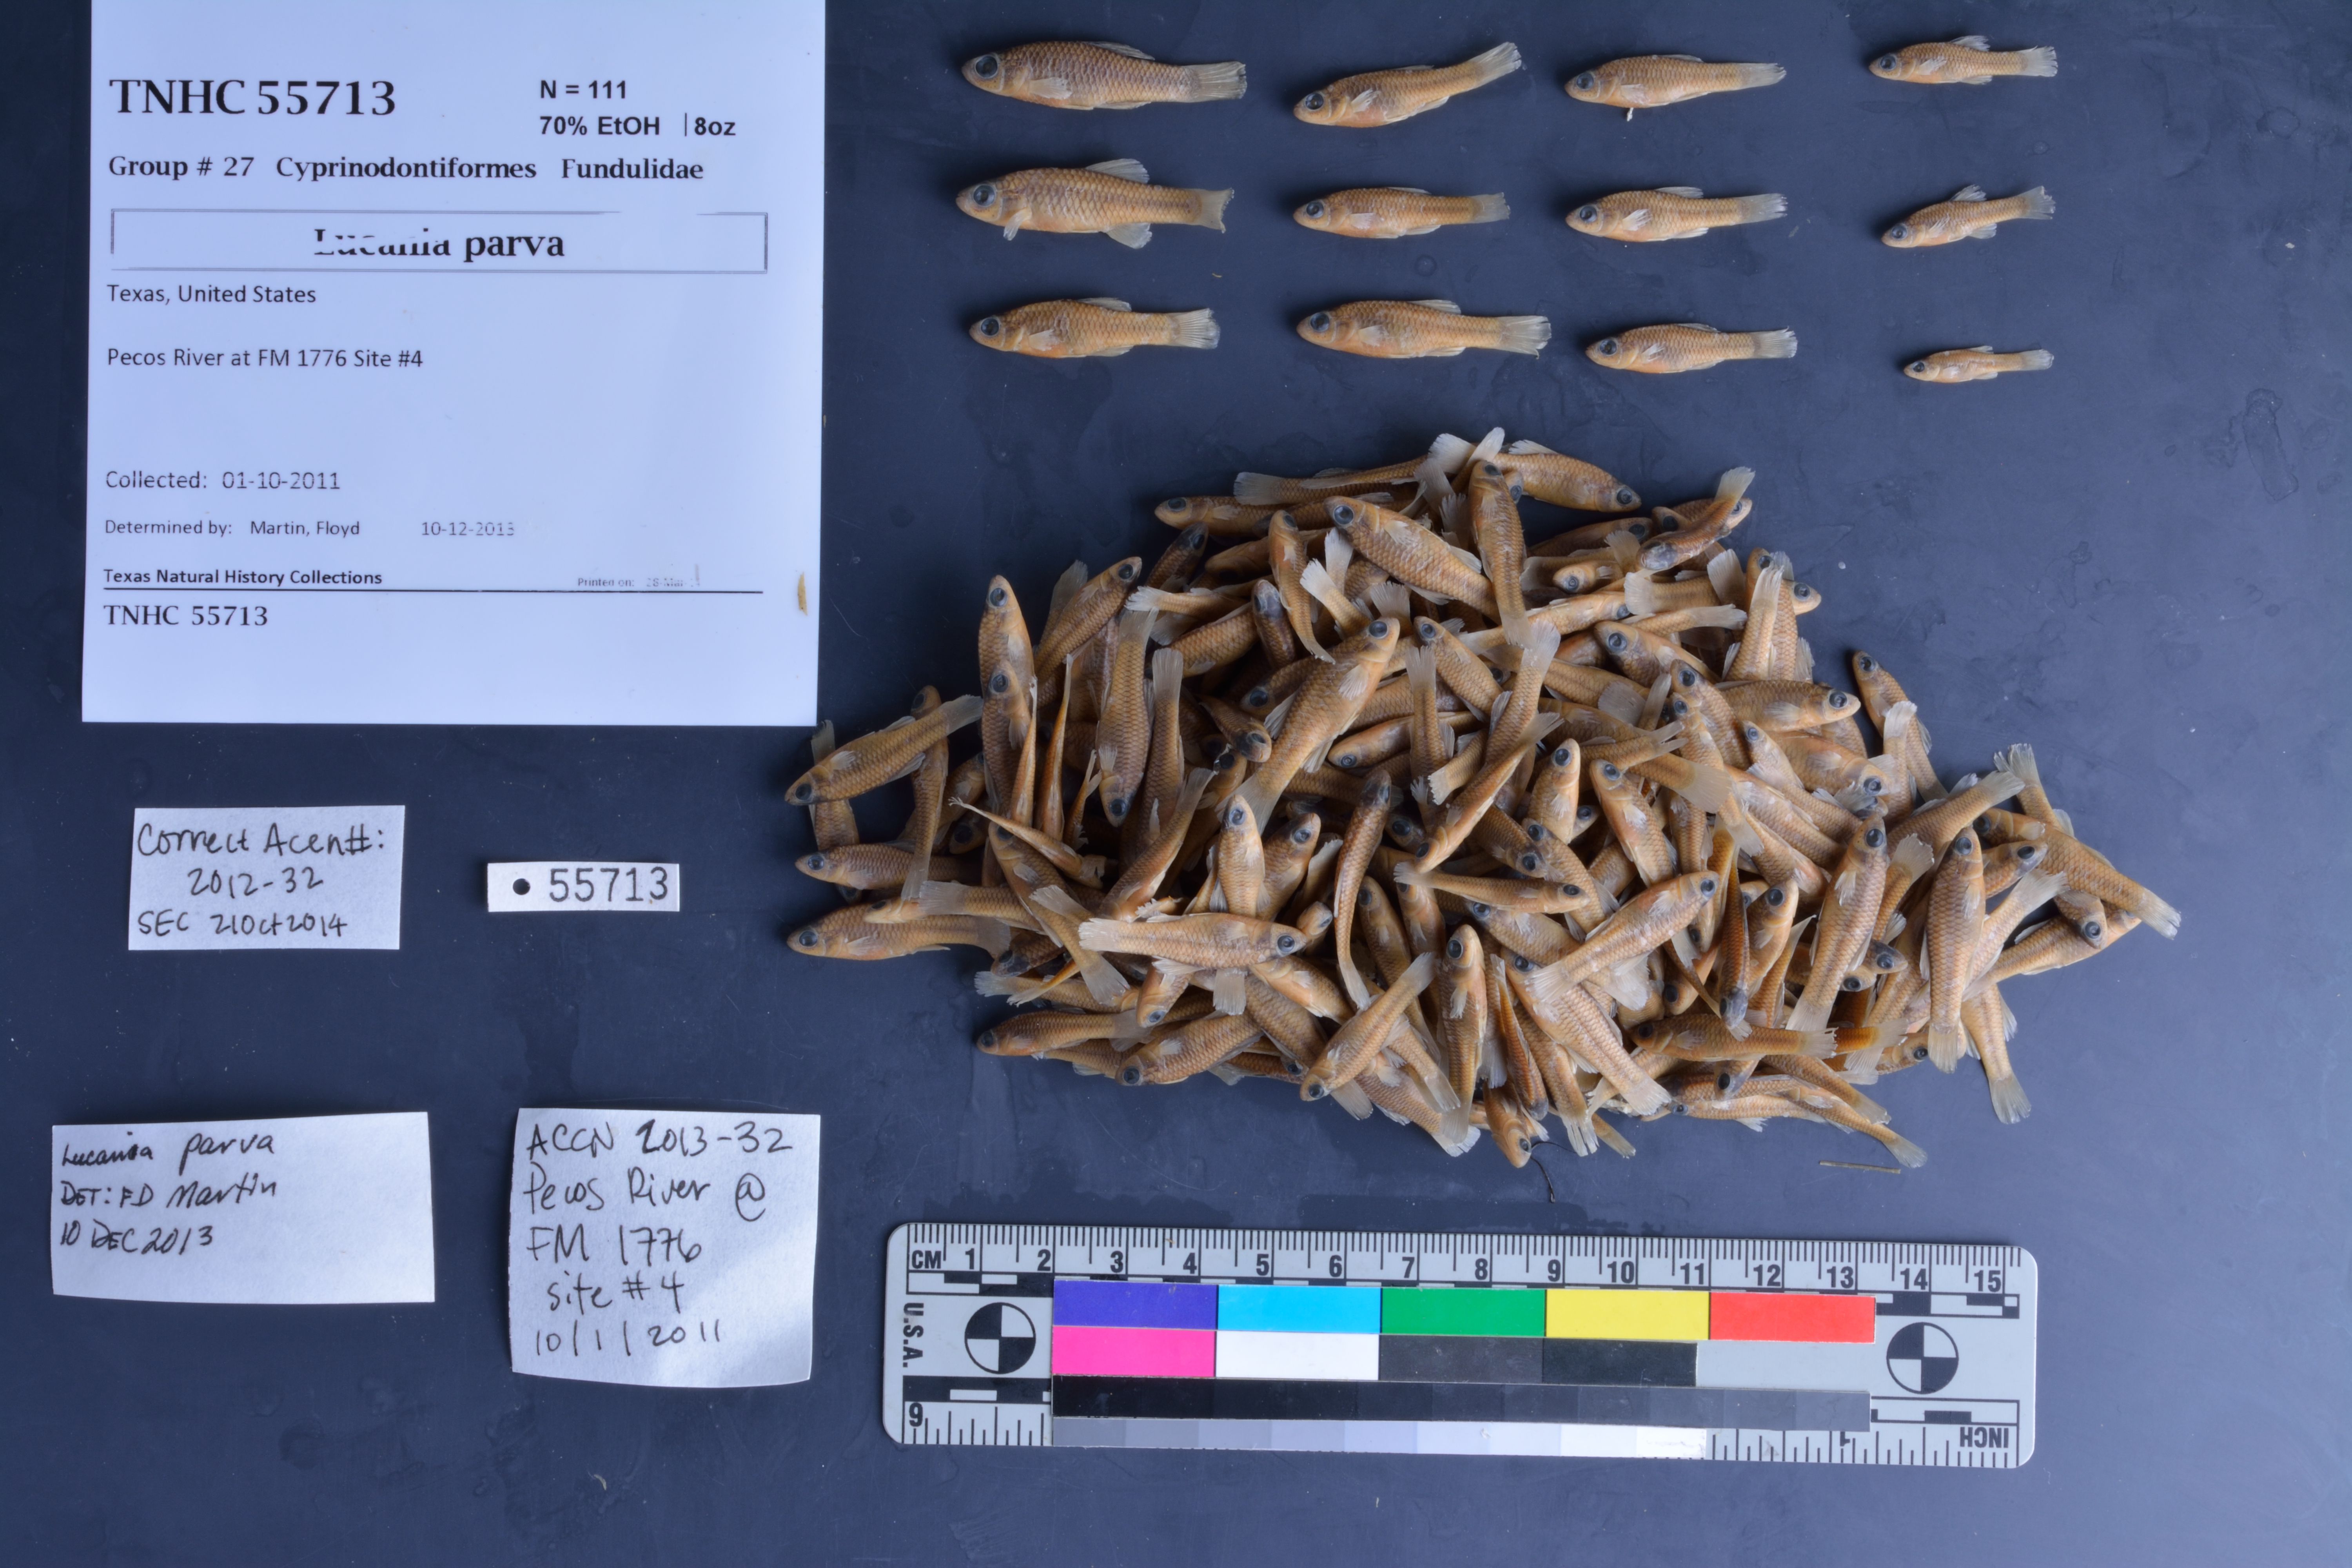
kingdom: Animalia
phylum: Chordata
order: Cyprinodontiformes
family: Fundulidae
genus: Lucania
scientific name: Lucania parva
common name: Rainwater killifish
